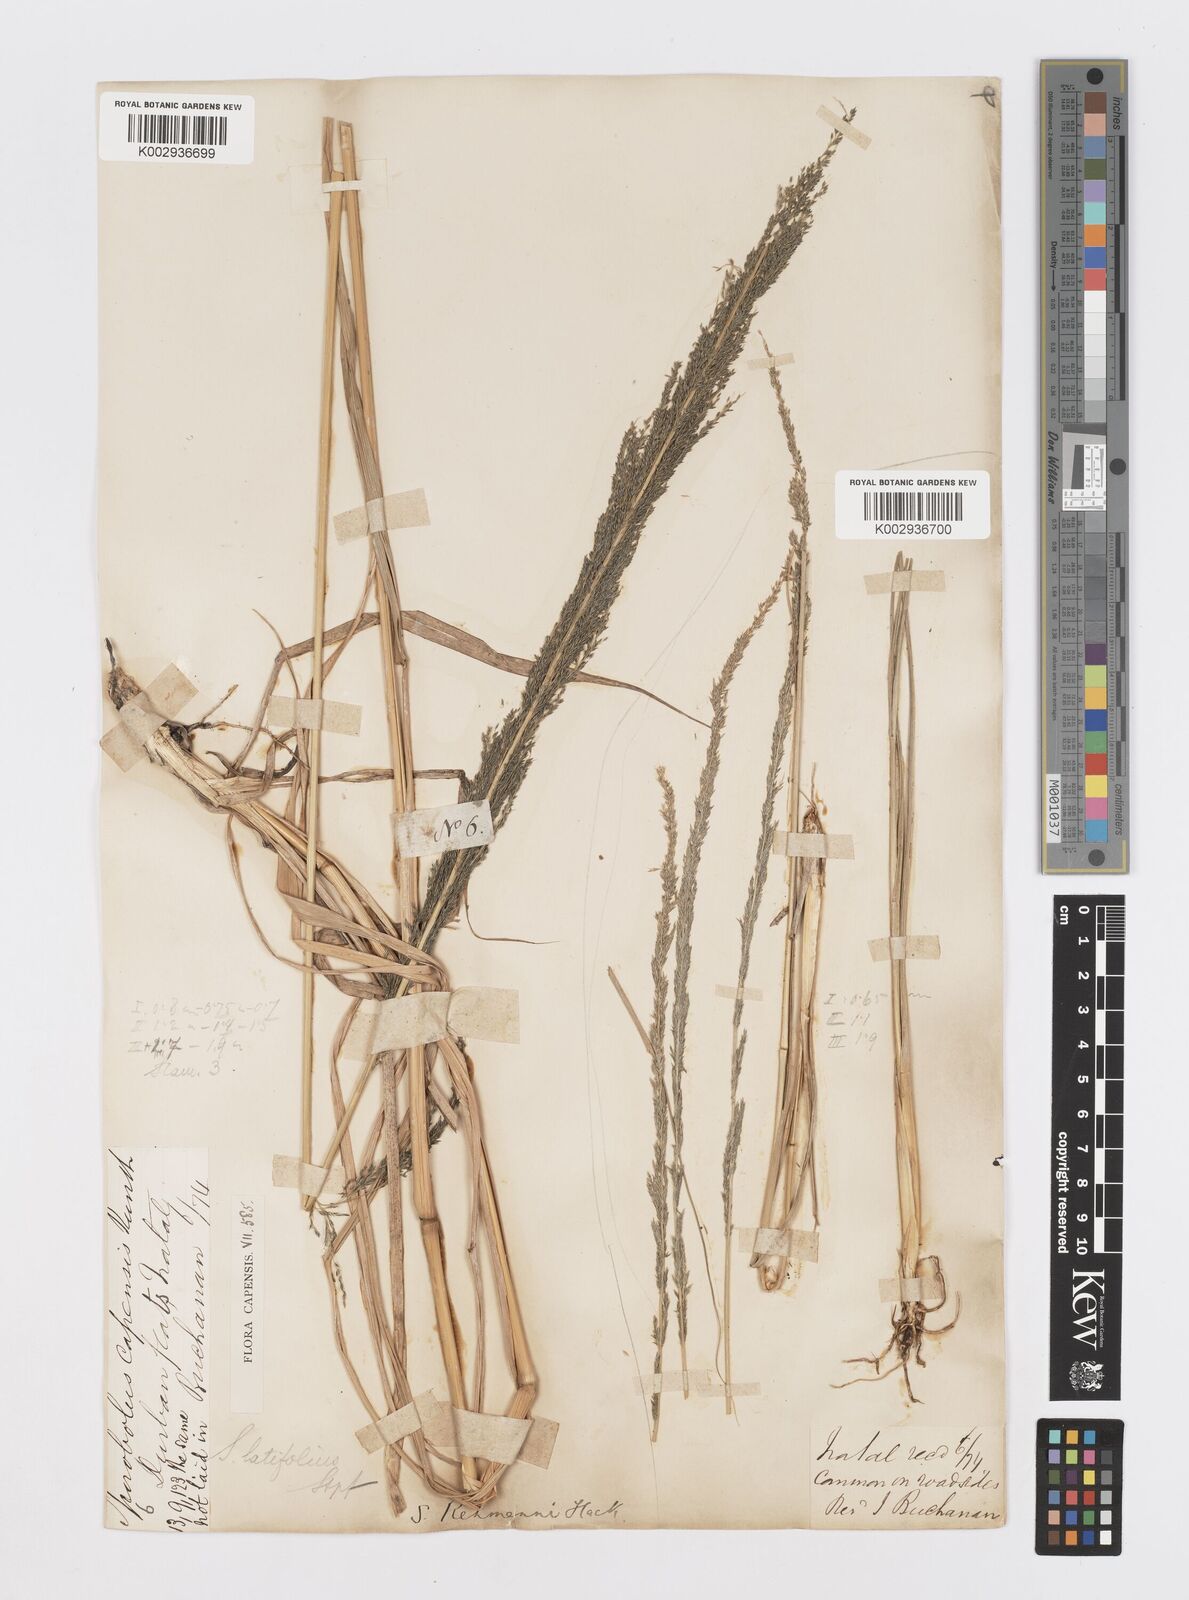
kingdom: Plantae
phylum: Tracheophyta
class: Liliopsida
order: Poales
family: Poaceae
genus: Sporobolus
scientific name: Sporobolus fimbriatus
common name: Fringed dropseed
